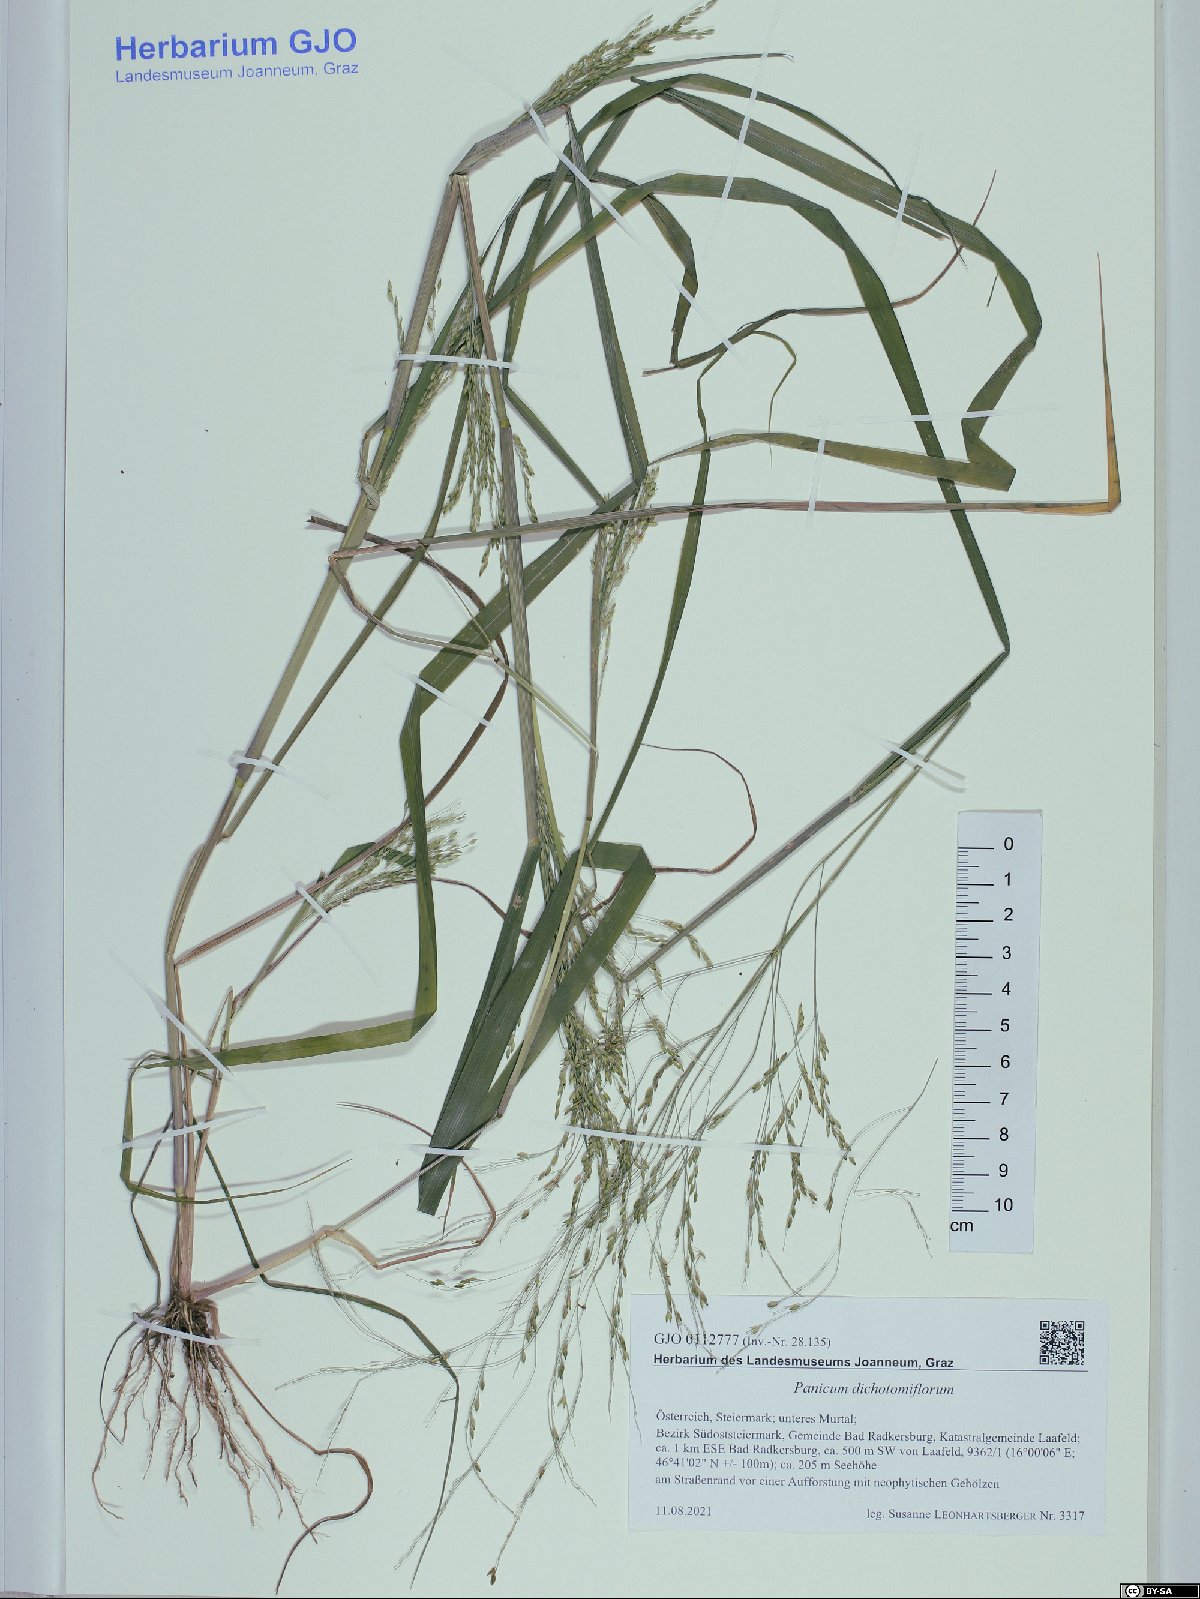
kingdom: Plantae
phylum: Tracheophyta
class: Liliopsida
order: Poales
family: Poaceae
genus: Panicum
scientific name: Panicum dichotomiflorum
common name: Autumn millet
